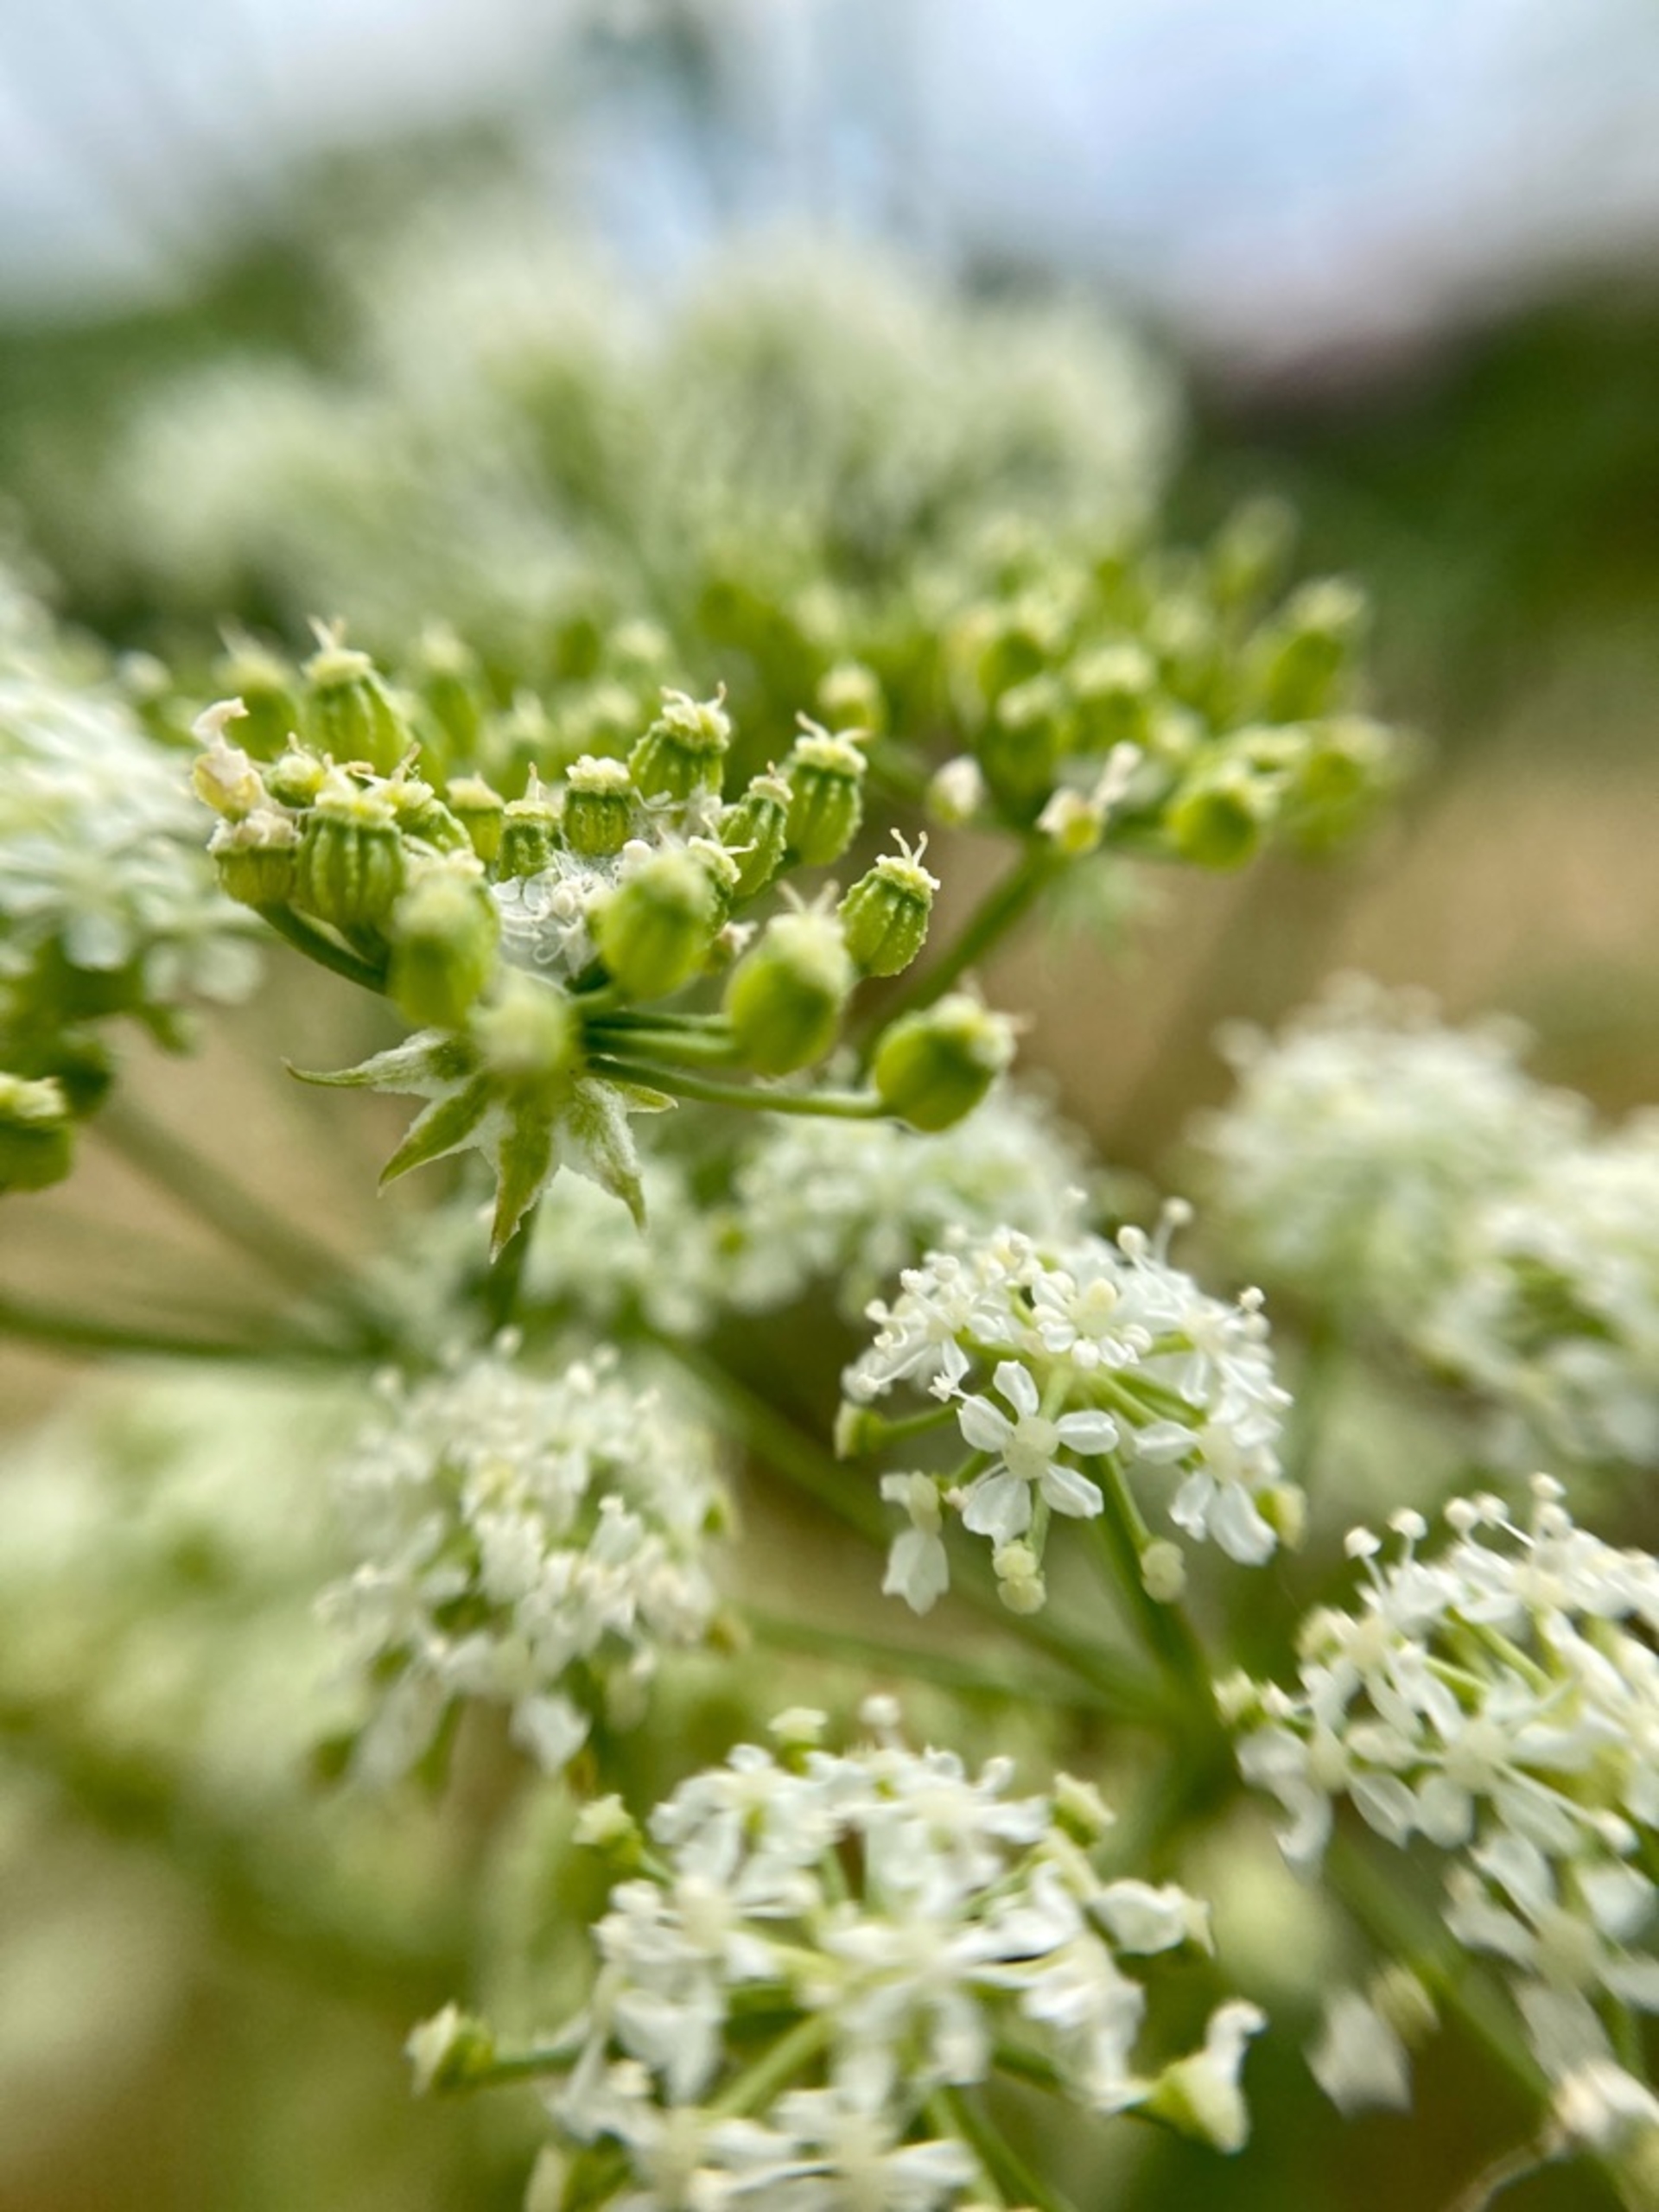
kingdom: Plantae
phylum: Tracheophyta
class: Magnoliopsida
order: Apiales
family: Apiaceae
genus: Conium
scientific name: Conium maculatum
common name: Skarntyde
